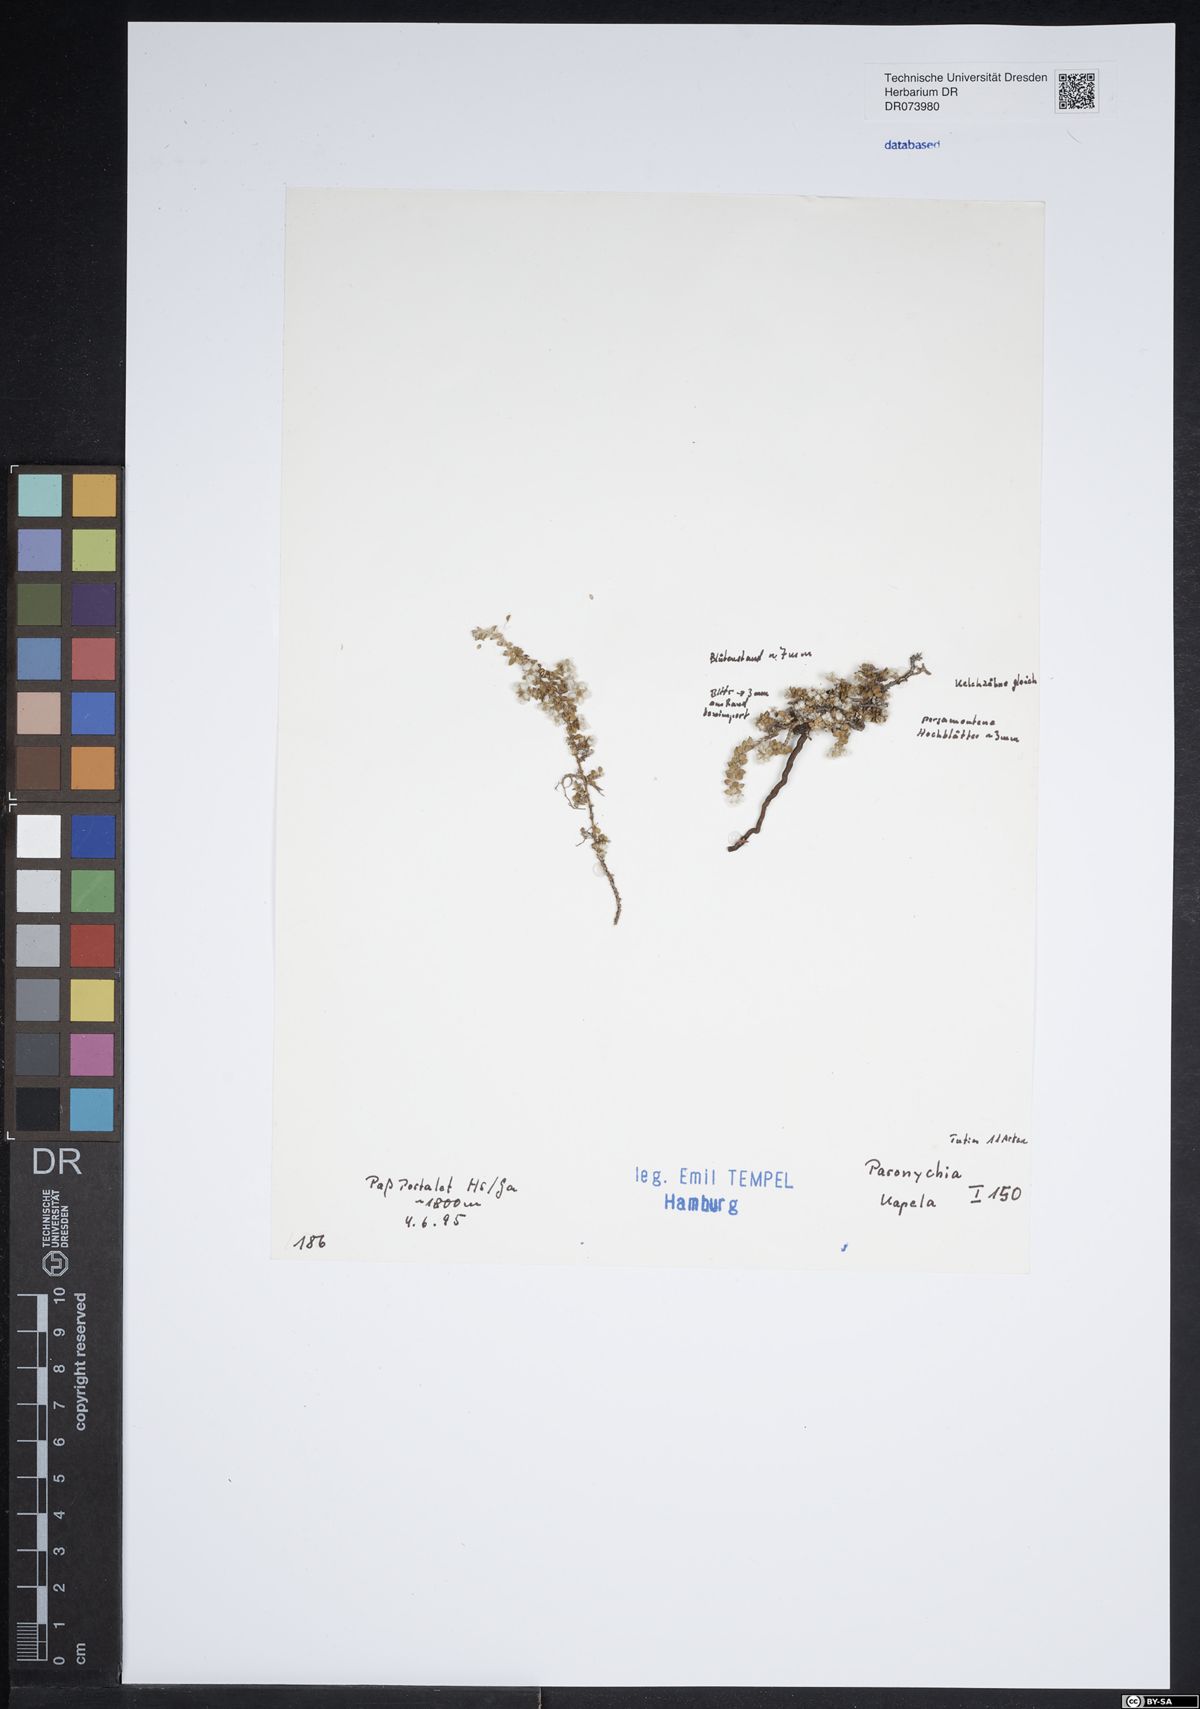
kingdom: Plantae
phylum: Tracheophyta
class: Magnoliopsida
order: Caryophyllales
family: Caryophyllaceae
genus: Paronychia
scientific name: Paronychia kapela
